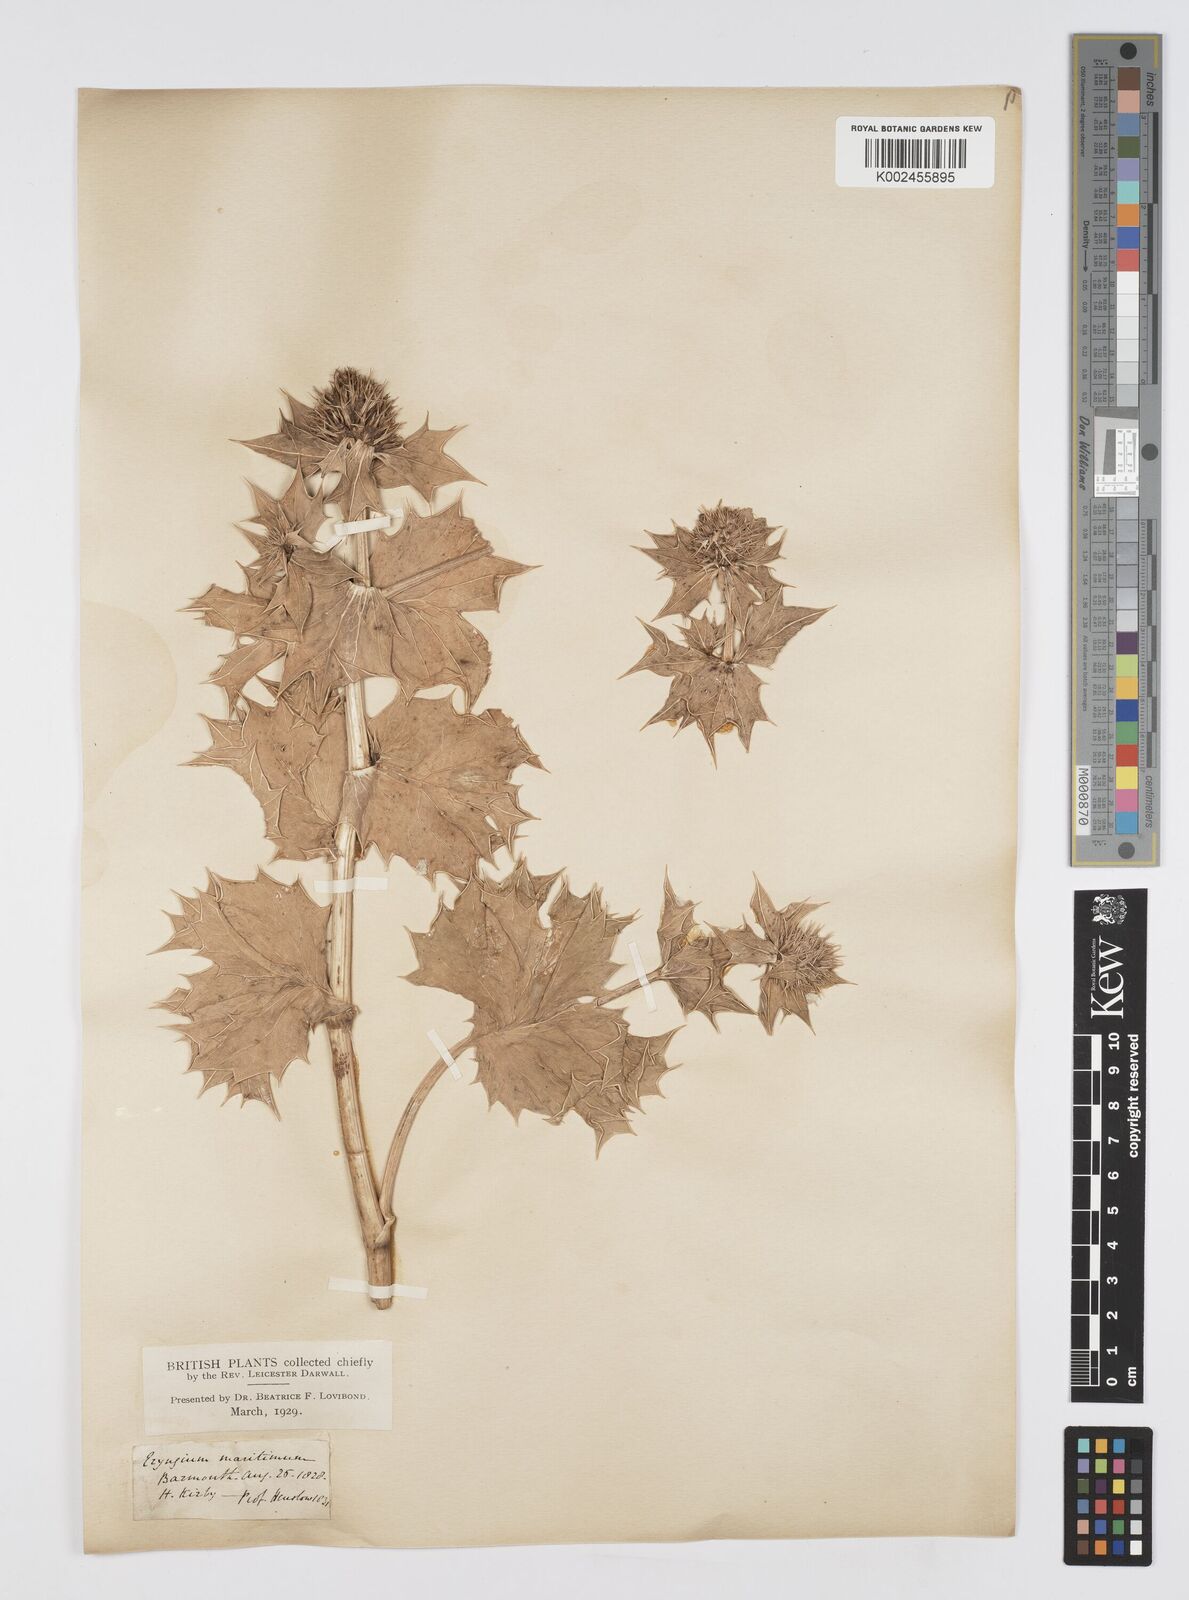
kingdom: Plantae
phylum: Tracheophyta
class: Magnoliopsida
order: Apiales
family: Apiaceae
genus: Eryngium
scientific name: Eryngium maritimum
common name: Sea-holly
